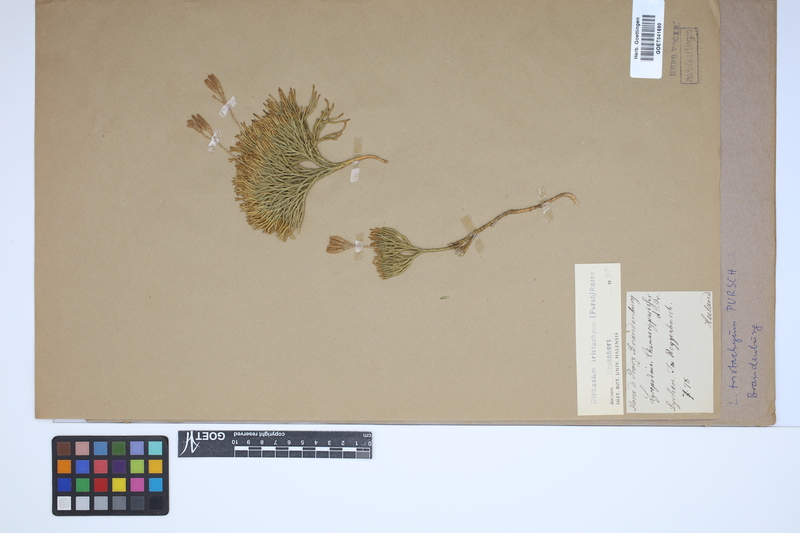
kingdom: Plantae
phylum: Tracheophyta
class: Lycopodiopsida
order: Lycopodiales
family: Lycopodiaceae
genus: Diphasiastrum
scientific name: Diphasiastrum tristachyum
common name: Blue ground-cedar
